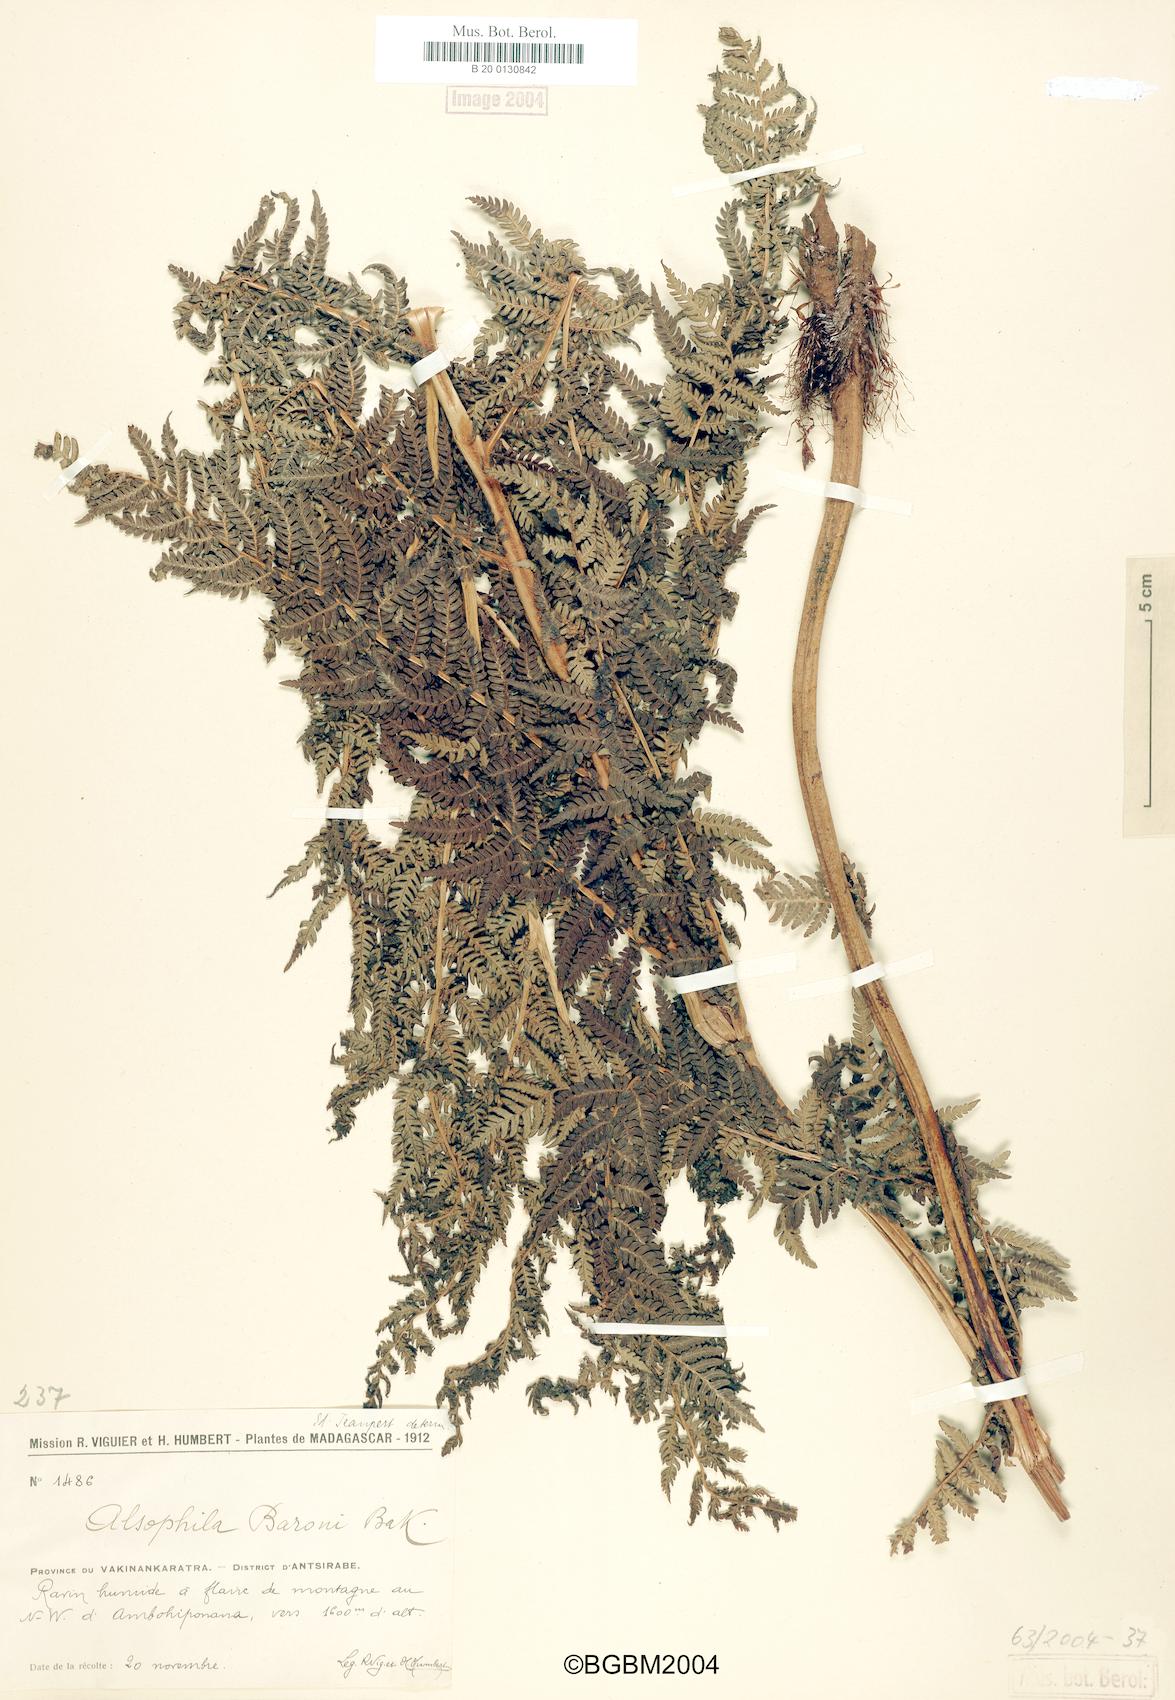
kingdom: Plantae
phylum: Tracheophyta
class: Polypodiopsida
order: Cyatheales
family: Cyatheaceae
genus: Alsophila
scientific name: Alsophila dregei
